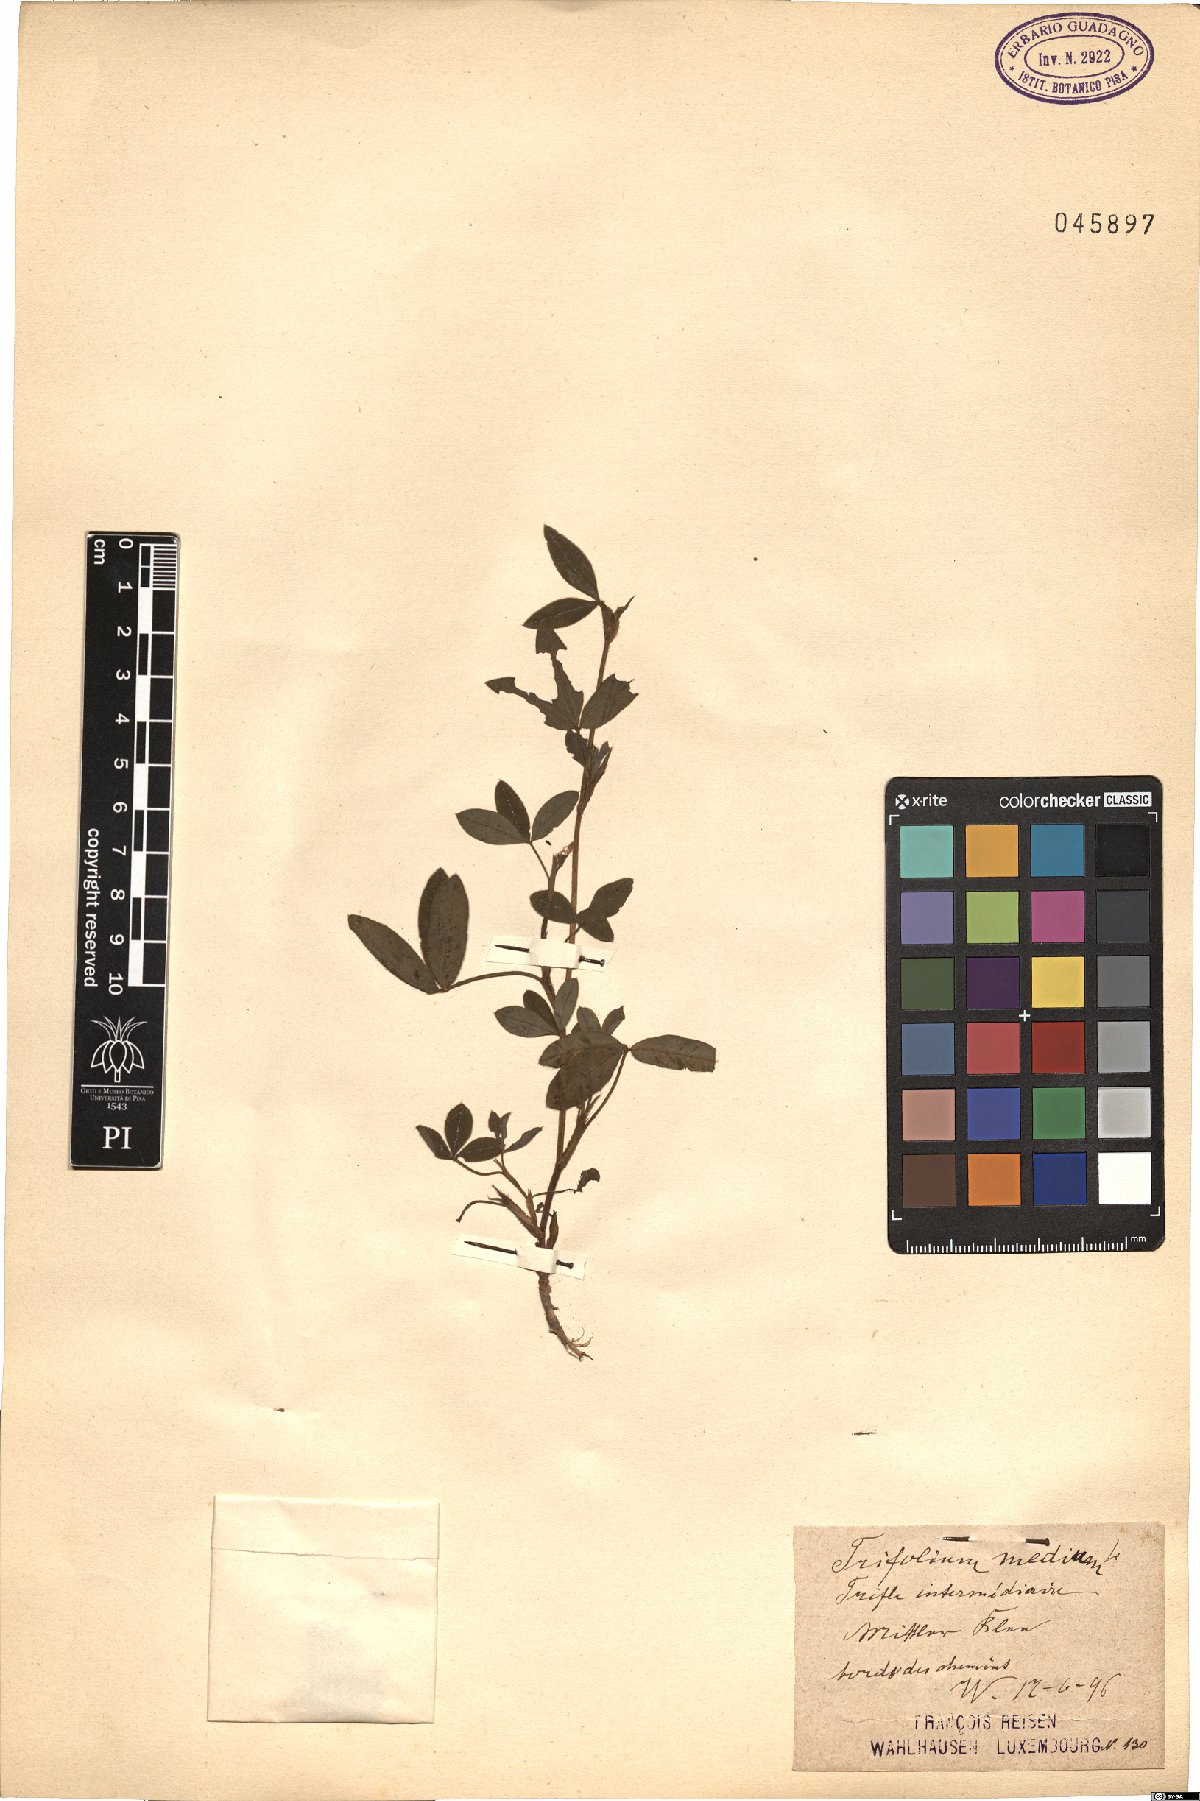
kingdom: Plantae
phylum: Tracheophyta
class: Magnoliopsida
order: Fabales
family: Fabaceae
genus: Trifolium
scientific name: Trifolium medium
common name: Zigzag clover
